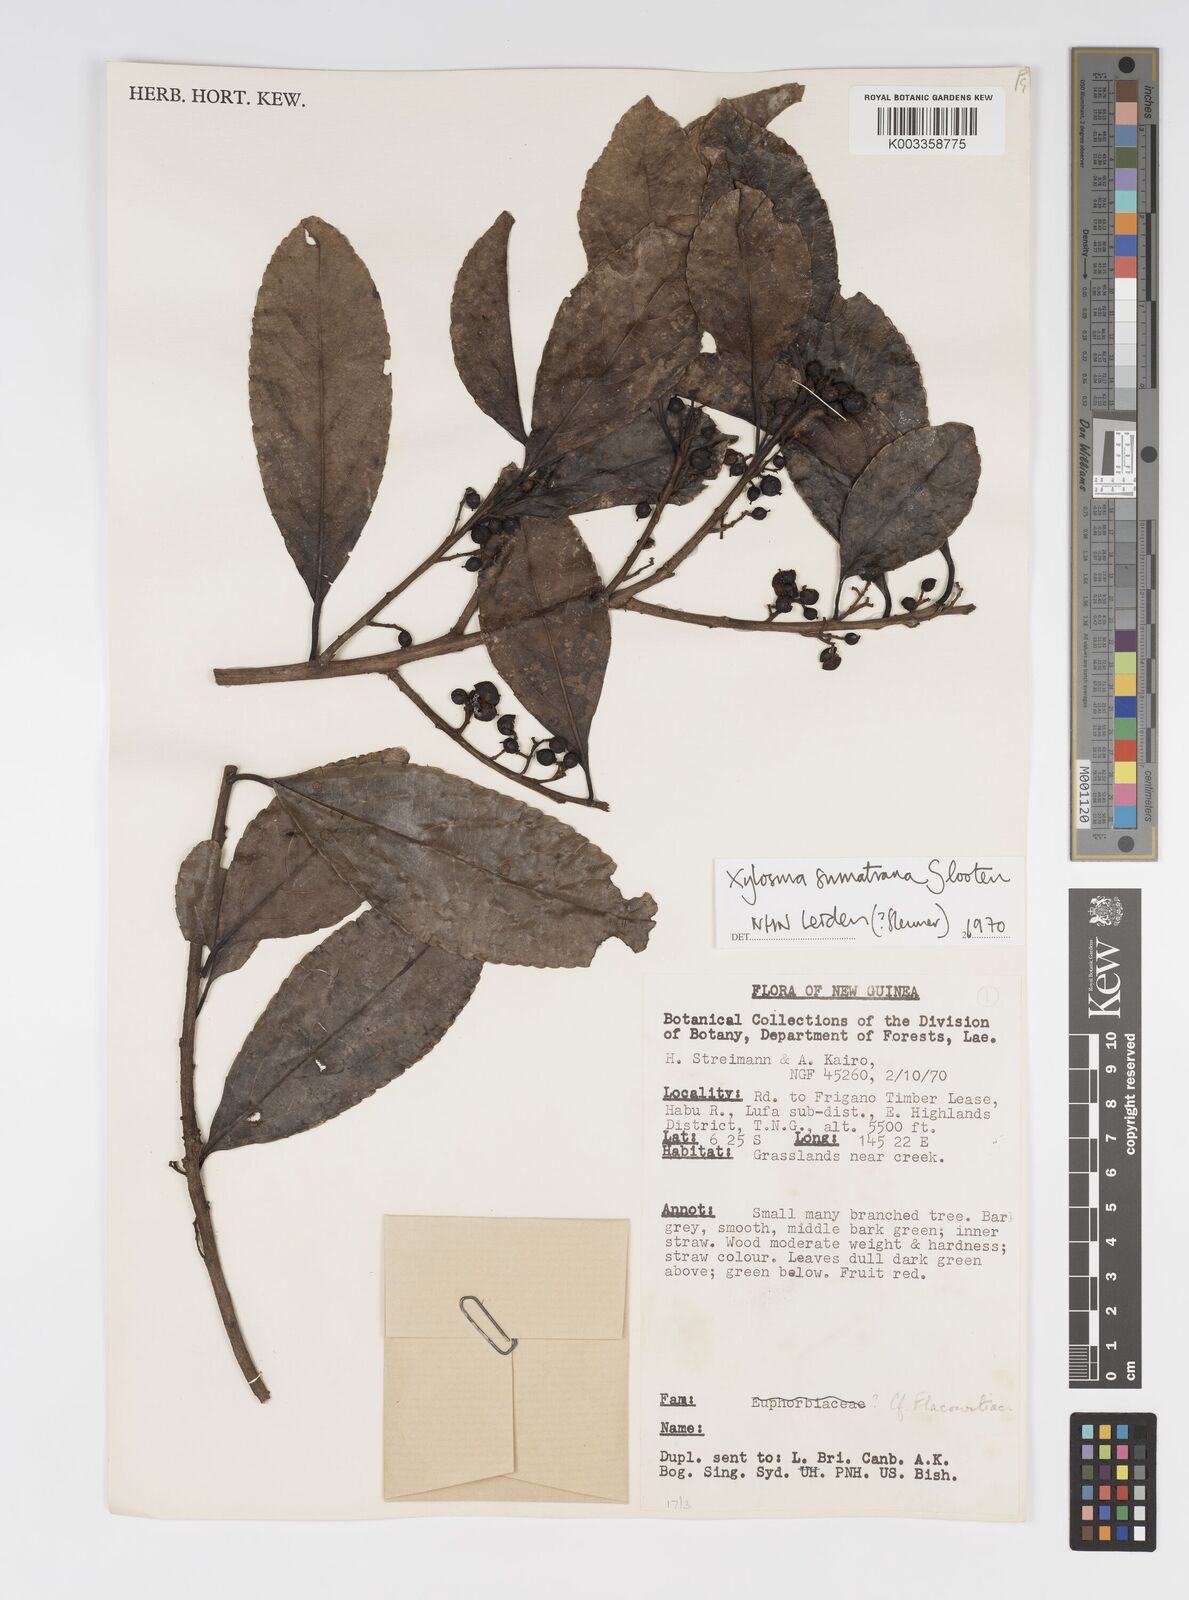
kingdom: Plantae
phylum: Tracheophyta
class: Magnoliopsida
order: Malpighiales
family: Salicaceae
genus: Xylosma
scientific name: Xylosma sumatrana
